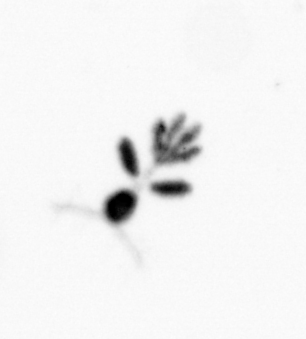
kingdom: Animalia
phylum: Arthropoda
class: Copepoda
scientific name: Copepoda
